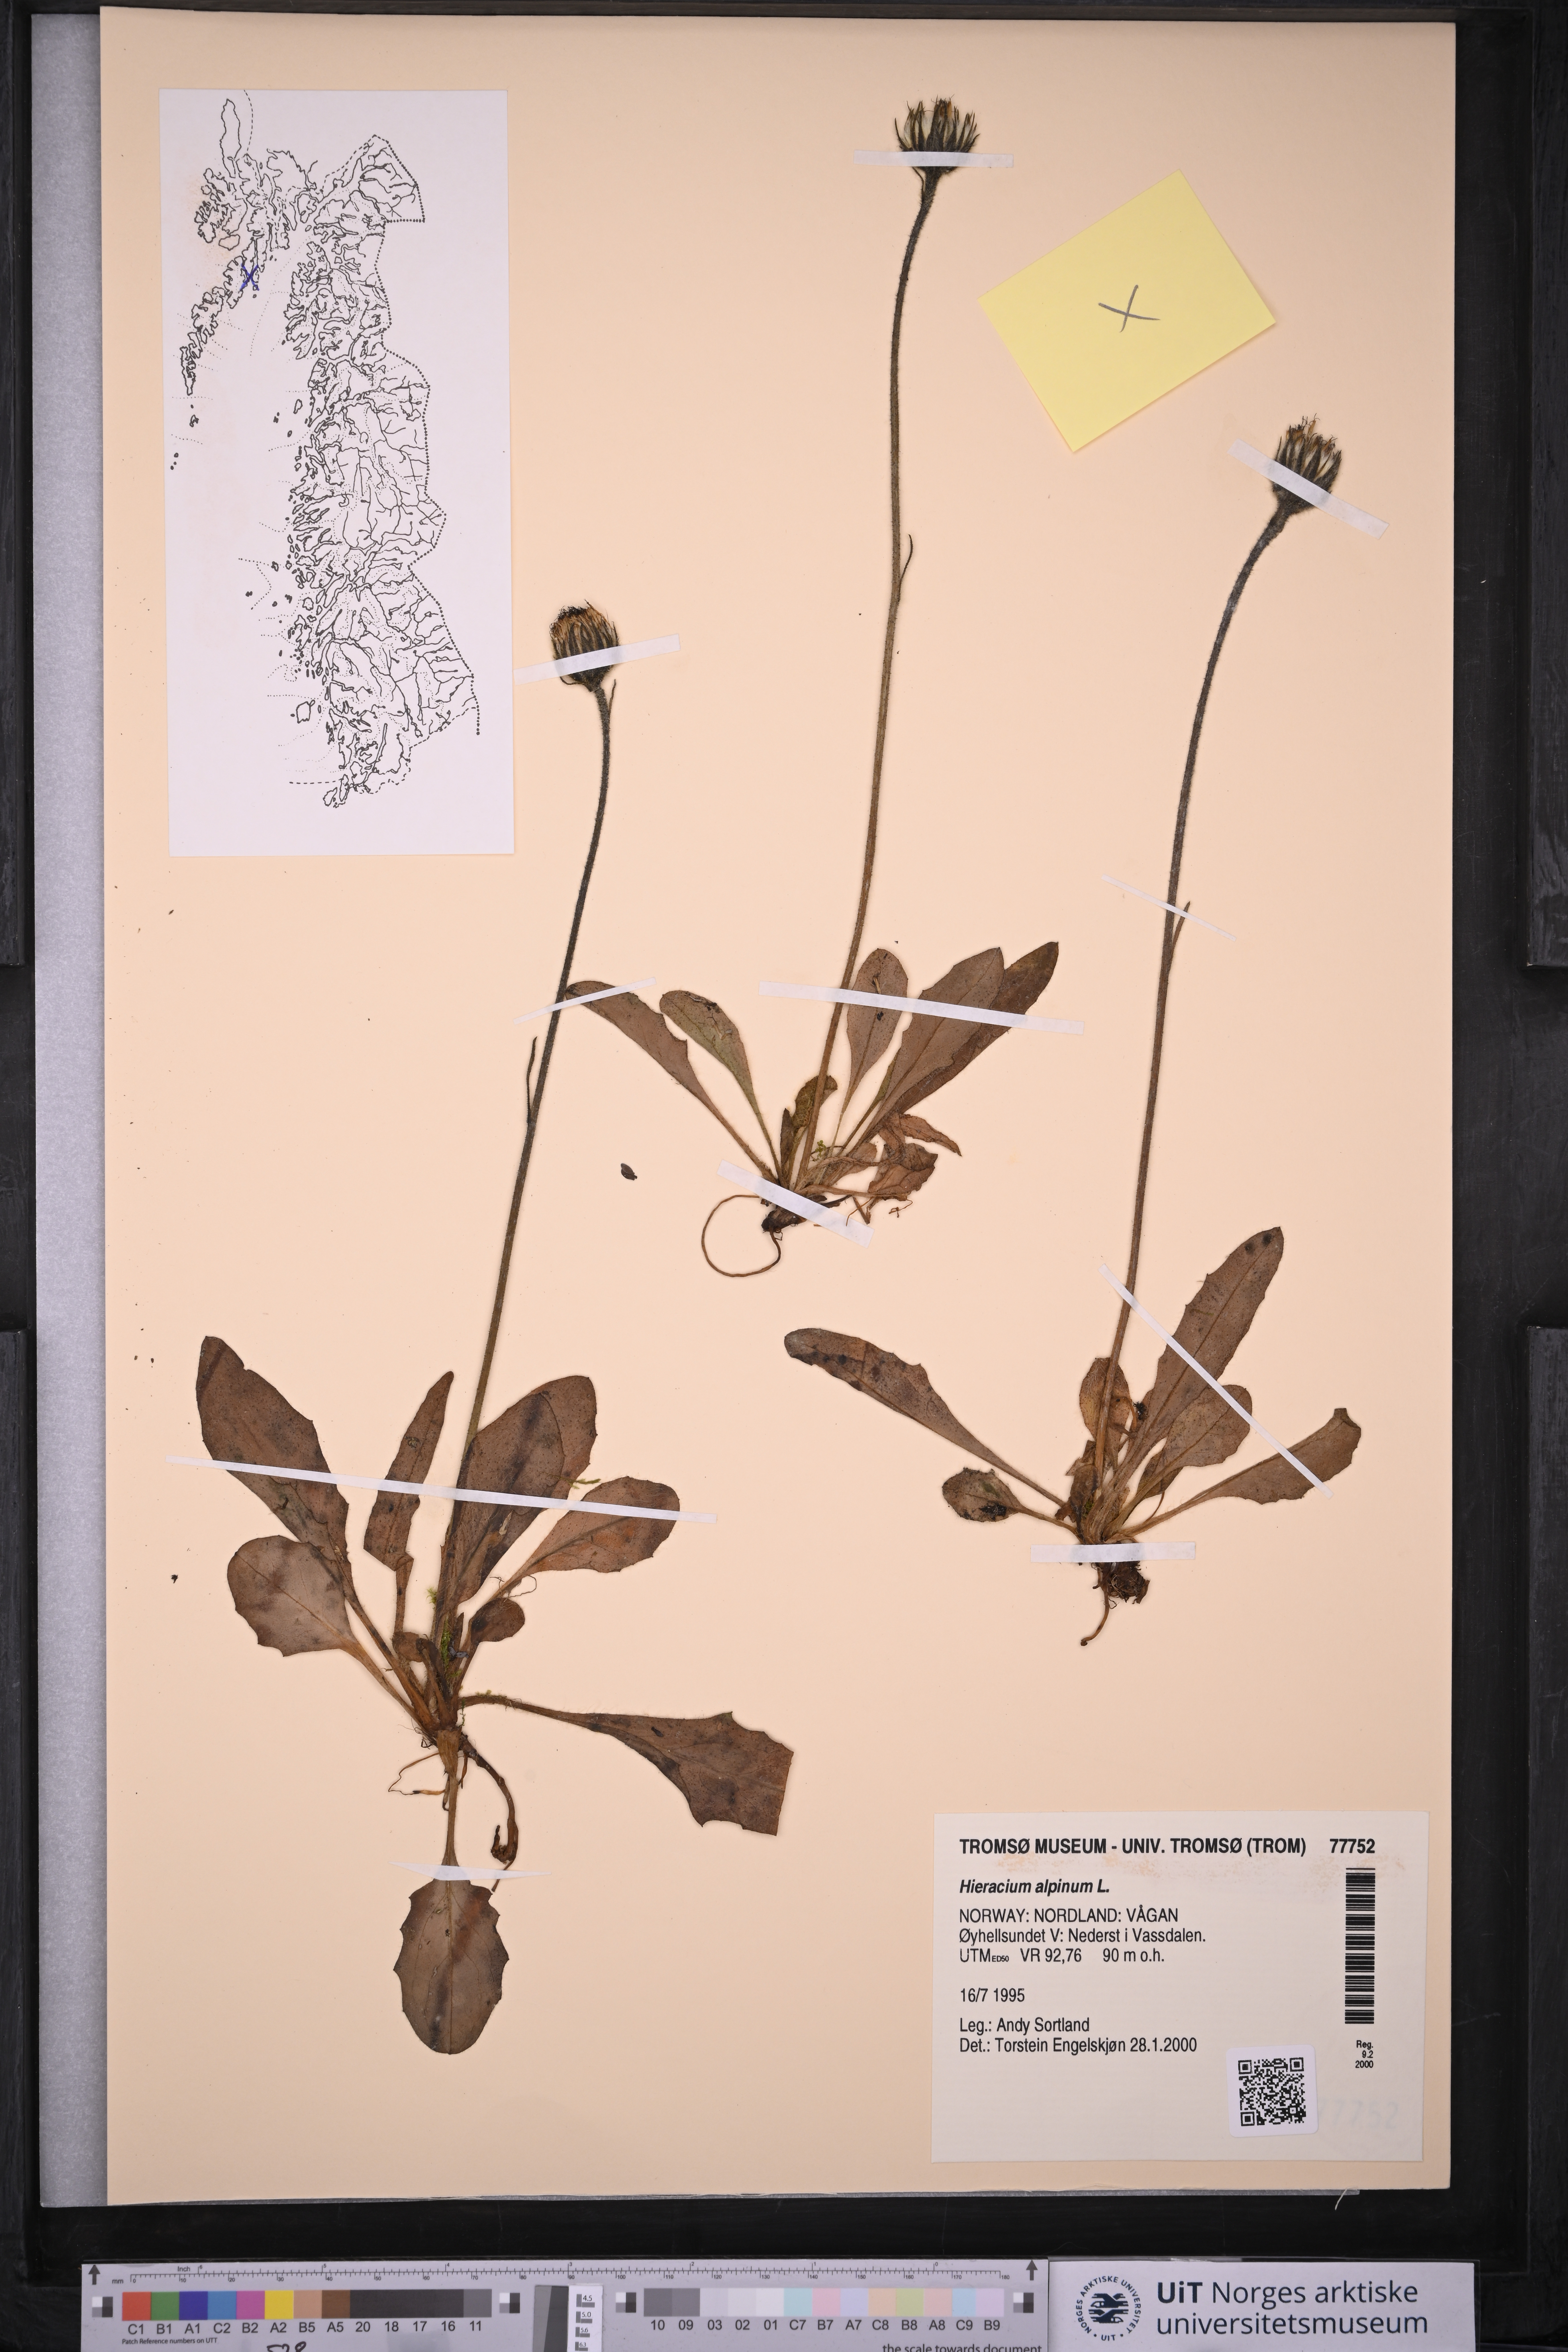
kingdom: Plantae
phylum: Tracheophyta
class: Magnoliopsida
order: Asterales
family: Asteraceae
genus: Hieracium
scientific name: Hieracium alpinum
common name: Alpine hawkweed
